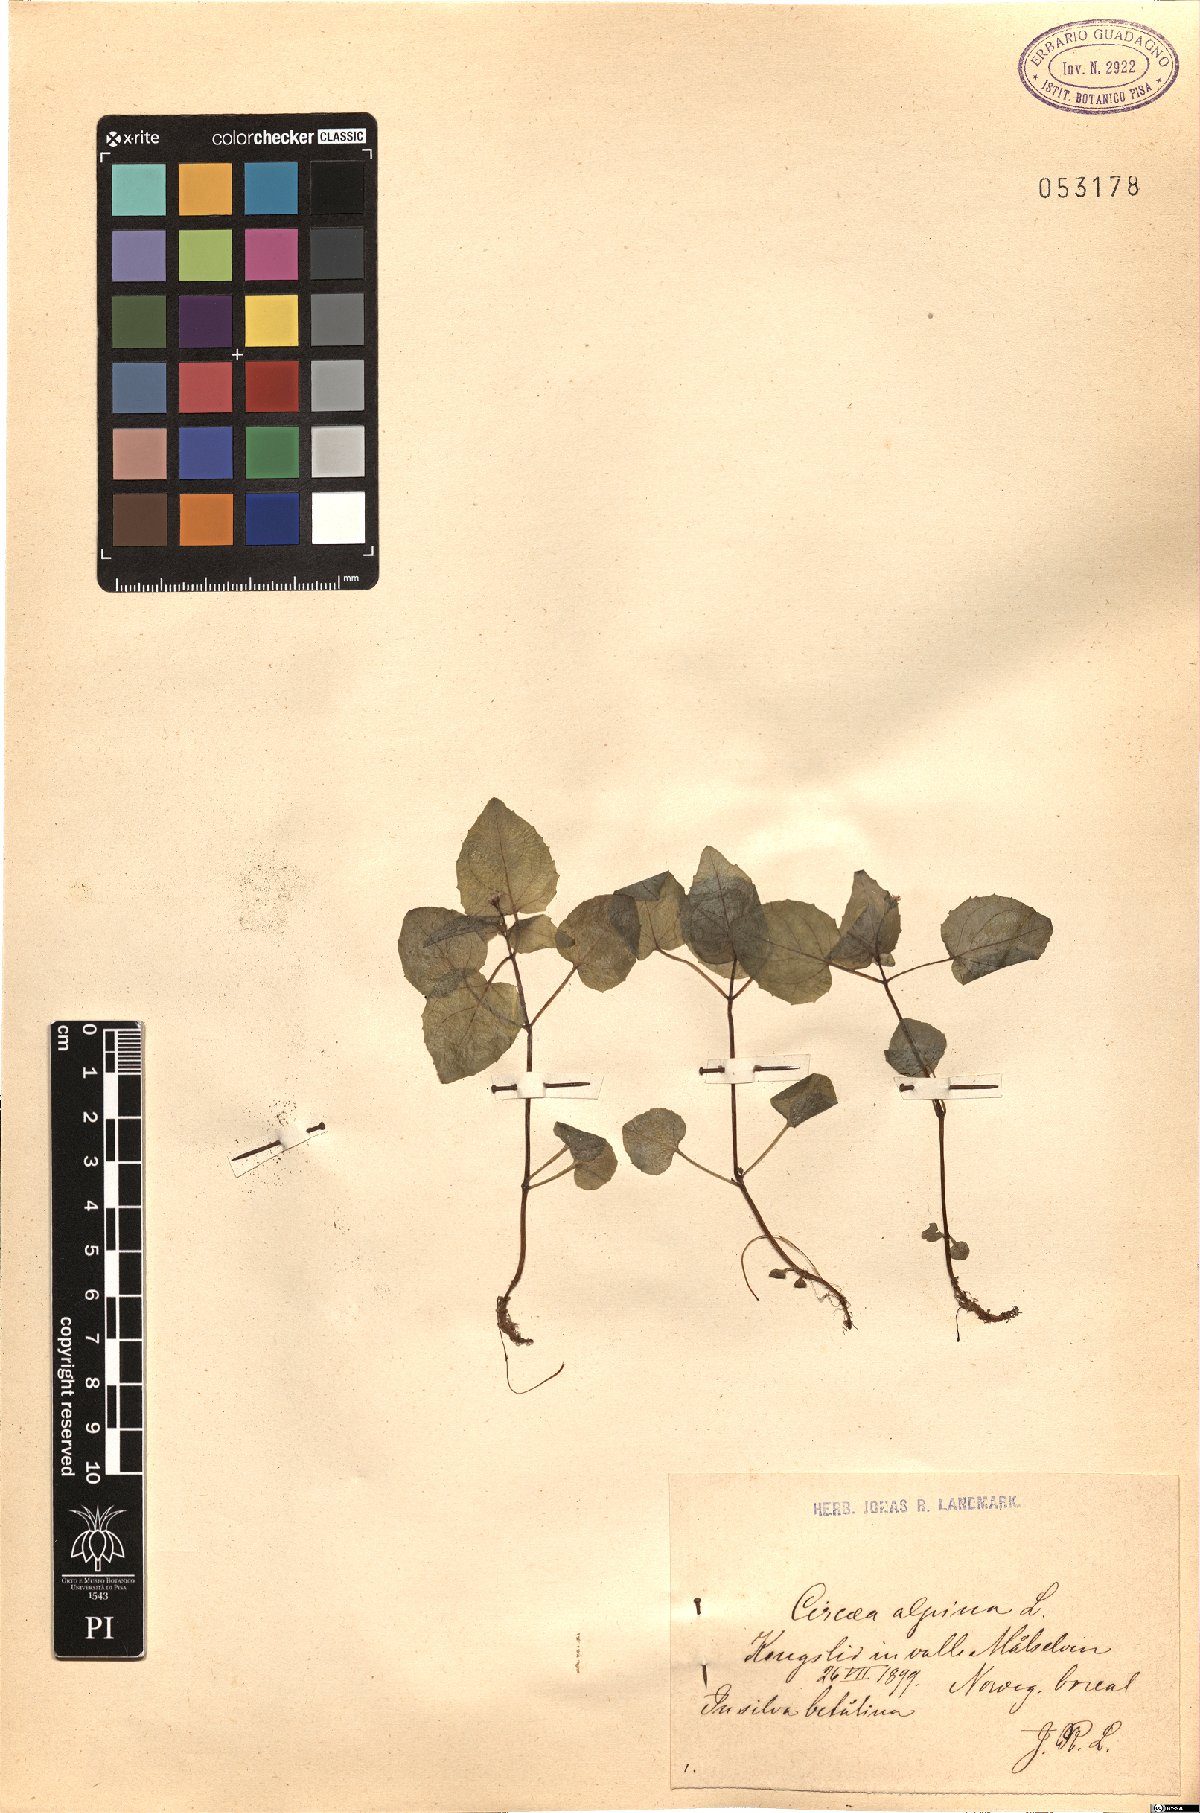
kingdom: Plantae
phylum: Tracheophyta
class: Magnoliopsida
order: Myrtales
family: Onagraceae
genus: Circaea
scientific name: Circaea alpina
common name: Alpine enchanter's-nightshade
